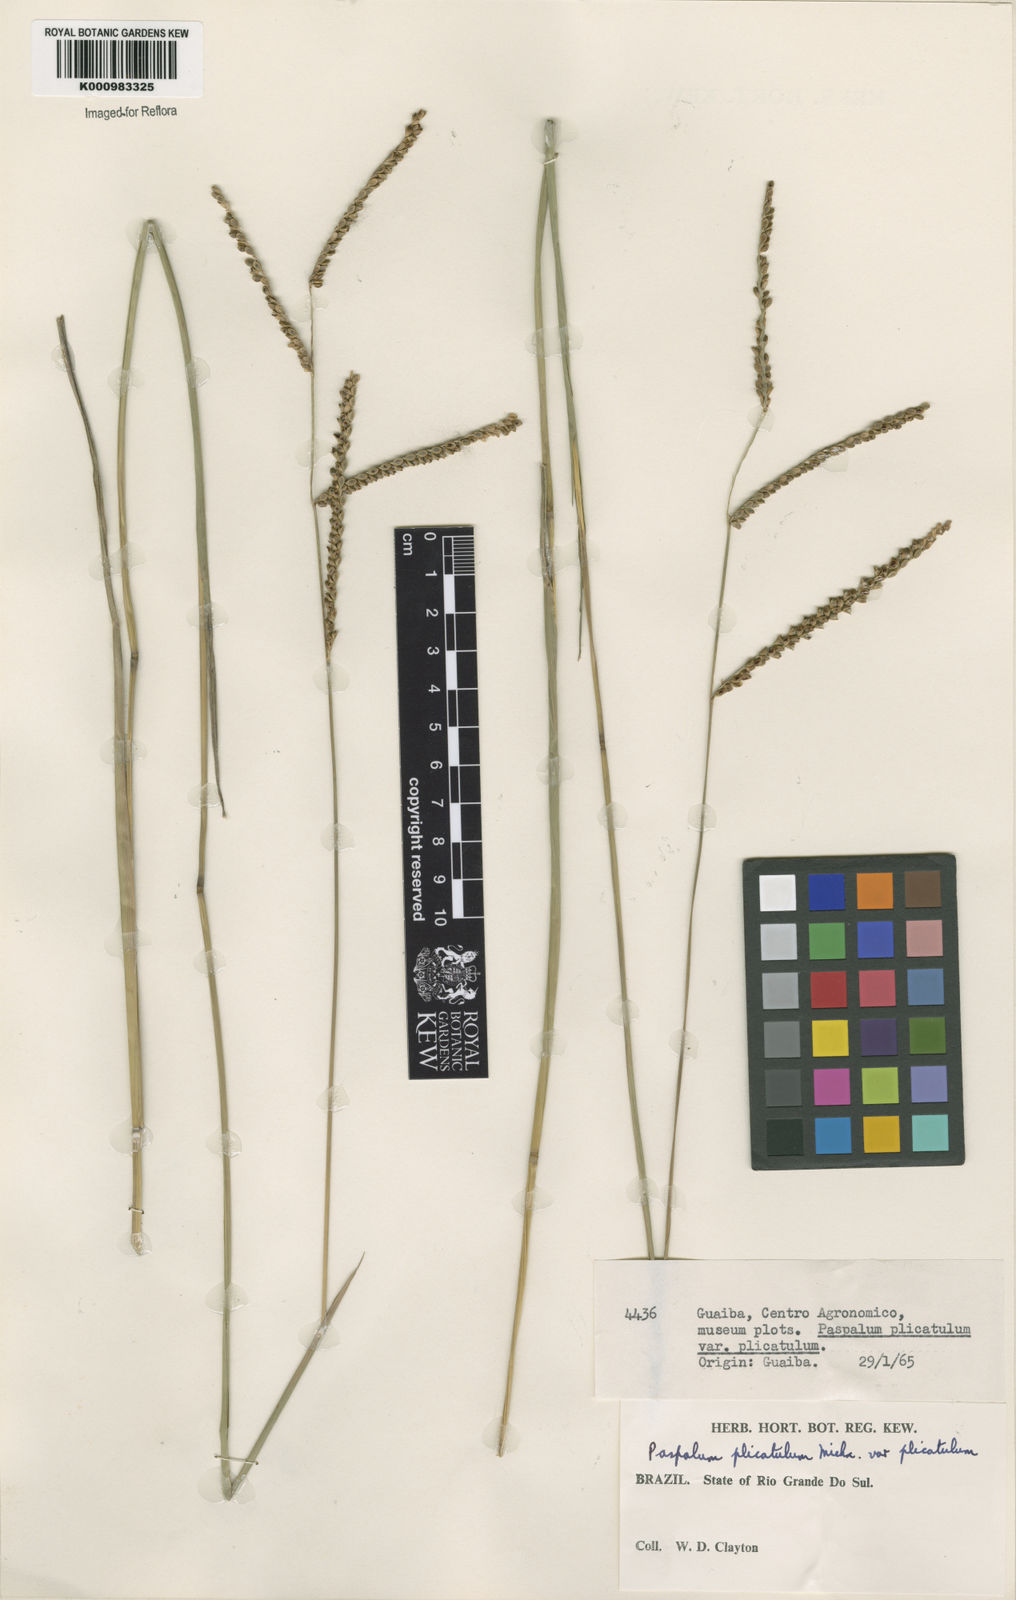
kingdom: Plantae
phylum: Tracheophyta
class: Liliopsida
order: Poales
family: Poaceae
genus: Paspalum
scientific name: Paspalum plicatulum
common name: Top paspalum
